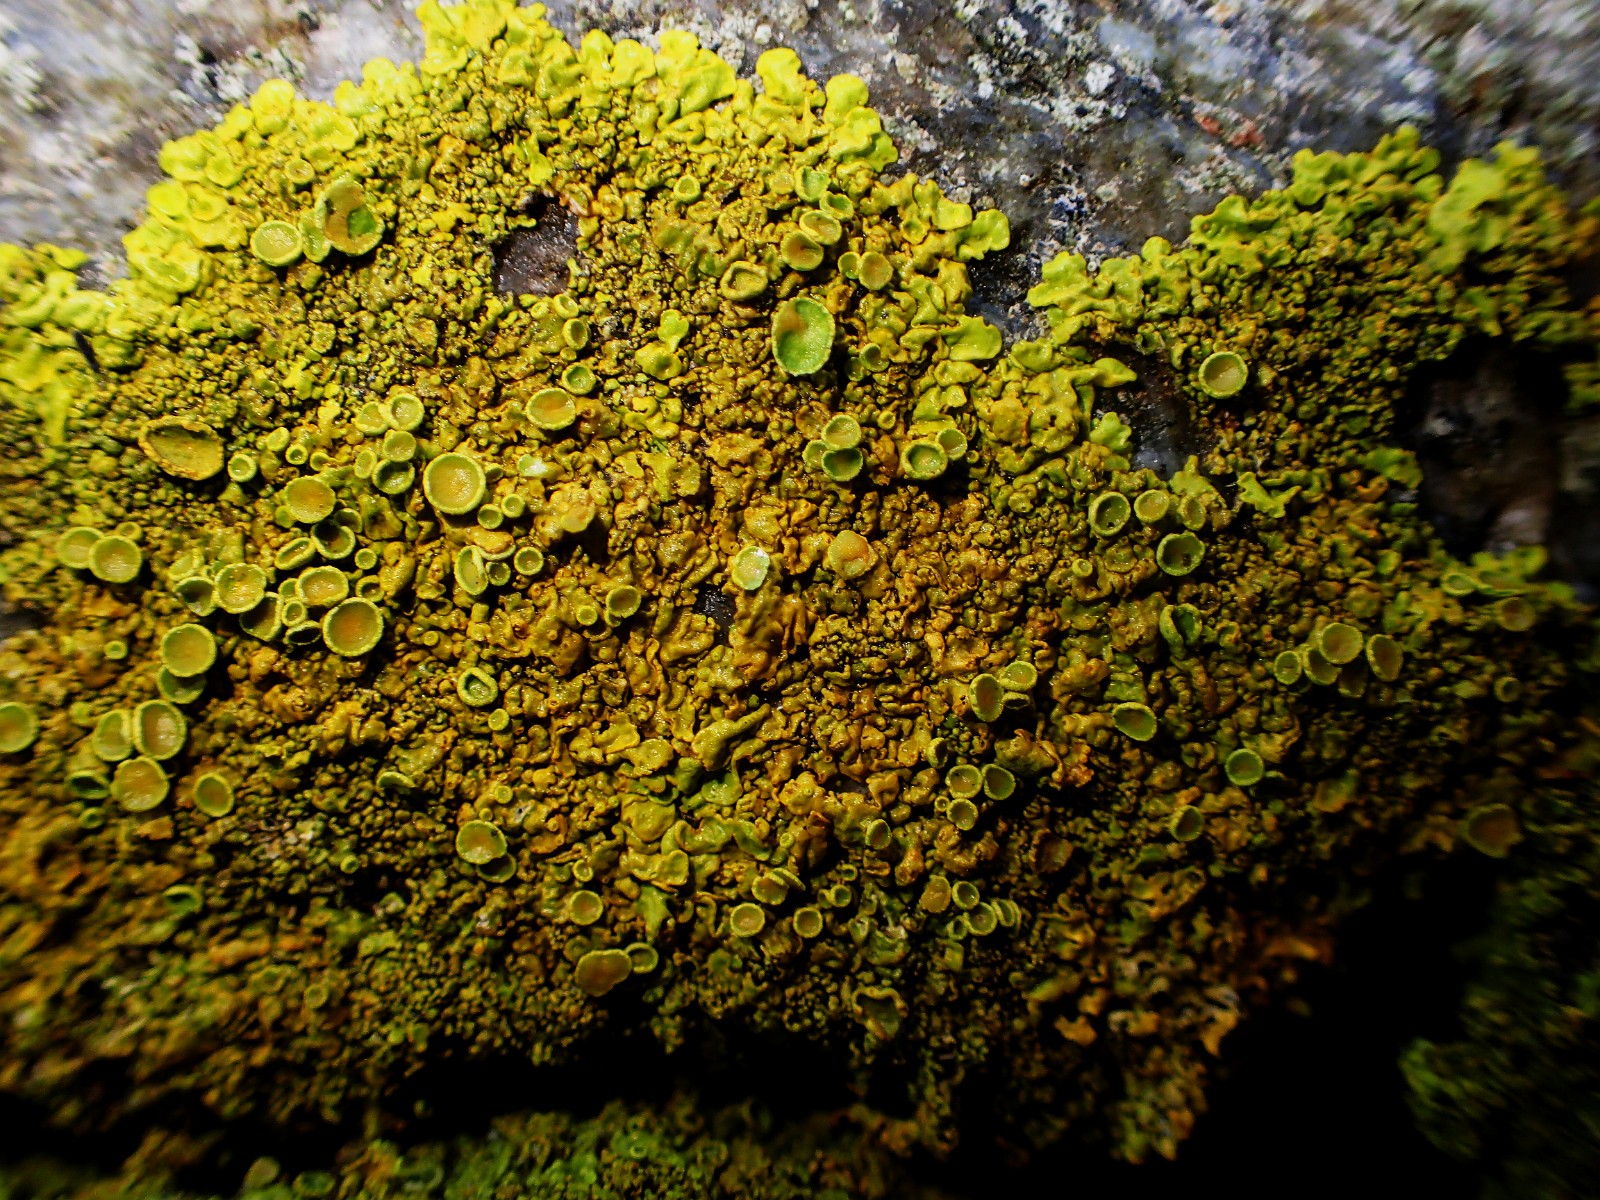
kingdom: Fungi
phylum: Ascomycota
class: Lecanoromycetes
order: Teloschistales
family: Teloschistaceae
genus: Xanthoria
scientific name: Xanthoria calcicola
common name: vortet væggelav
